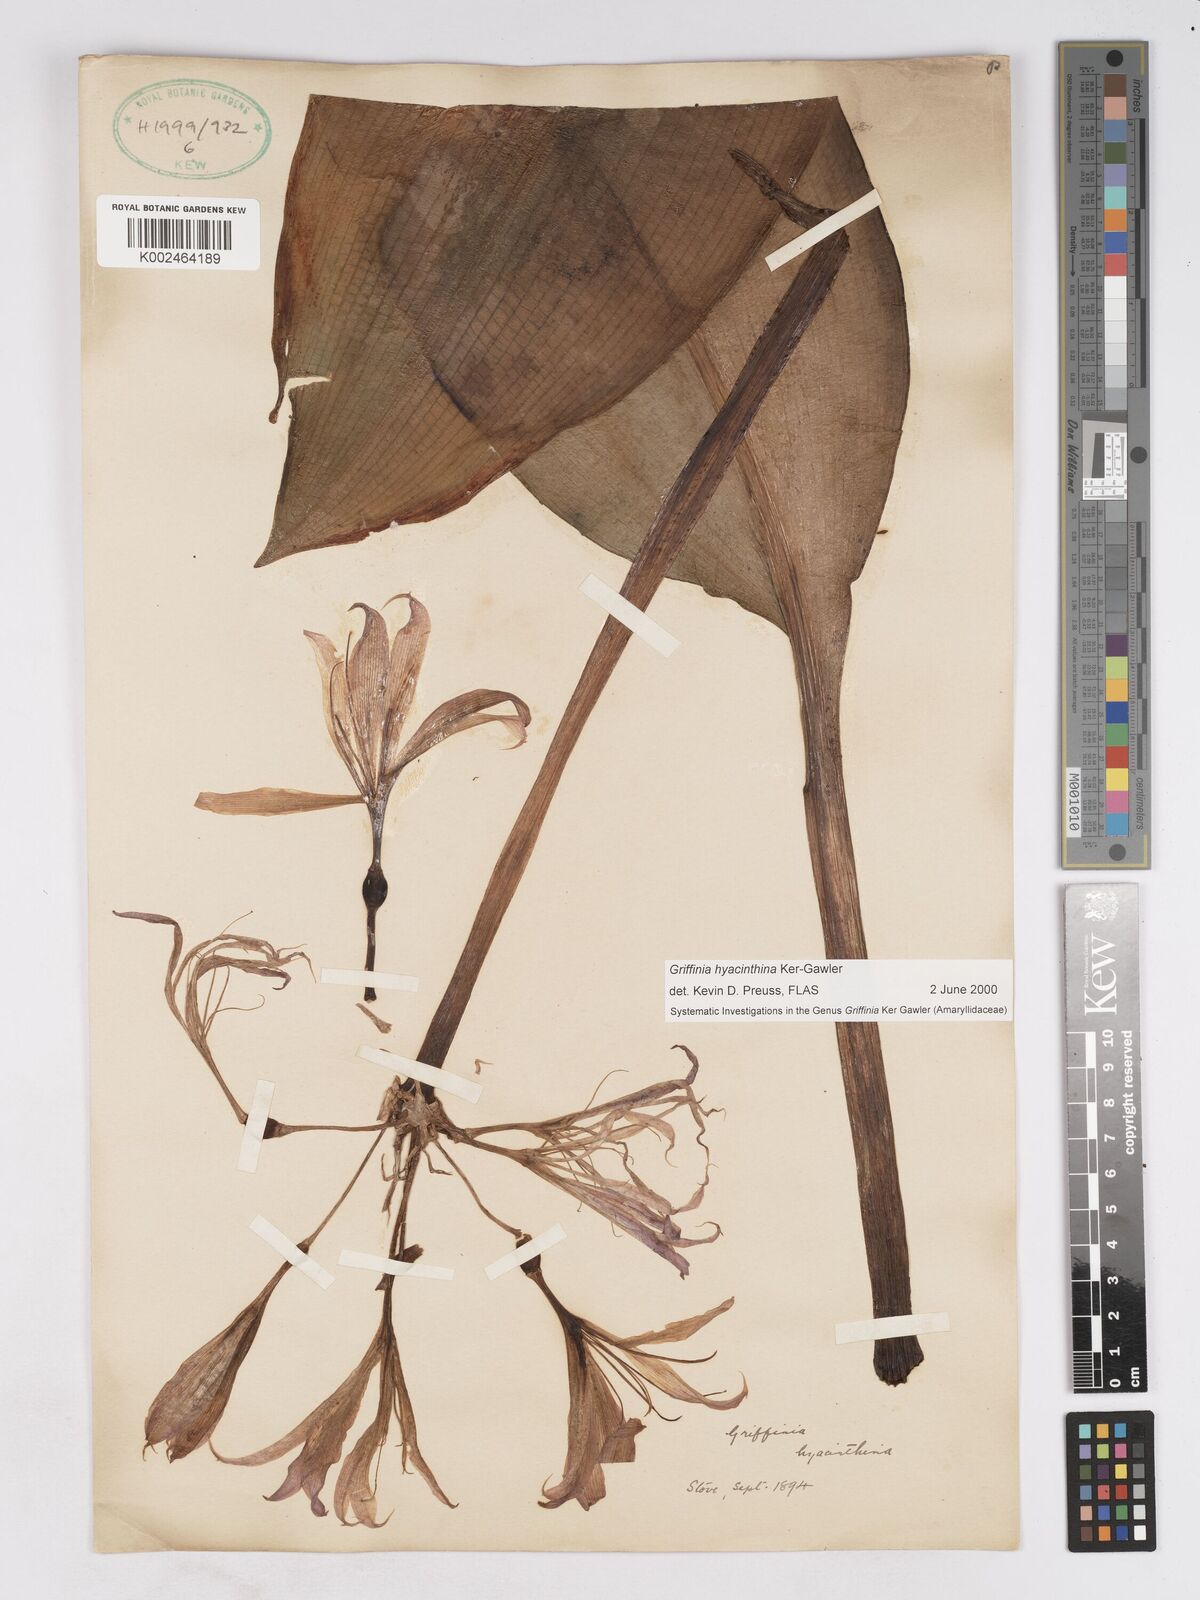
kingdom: Plantae
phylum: Tracheophyta
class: Liliopsida
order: Asparagales
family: Amaryllidaceae
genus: Griffinia
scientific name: Griffinia hyacinthina
